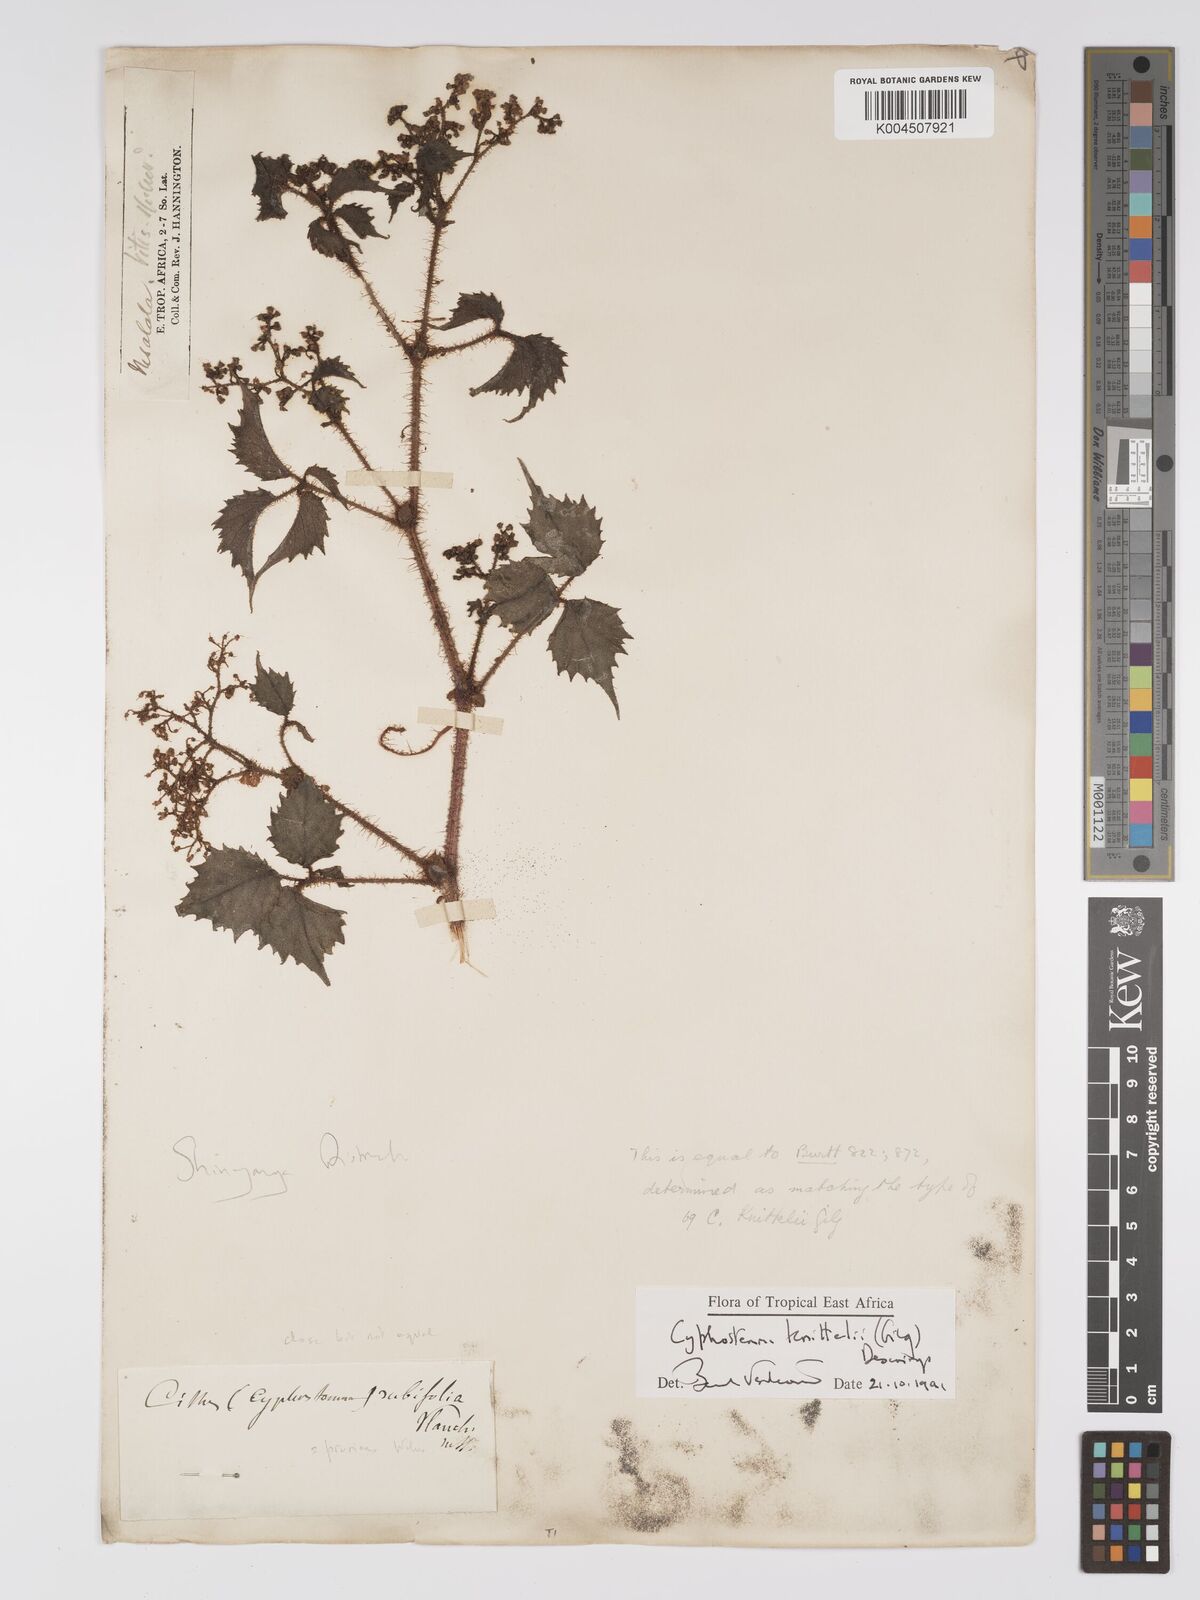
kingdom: Plantae
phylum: Tracheophyta
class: Magnoliopsida
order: Vitales
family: Vitaceae
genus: Cyphostemma
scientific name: Cyphostemma knittelii
